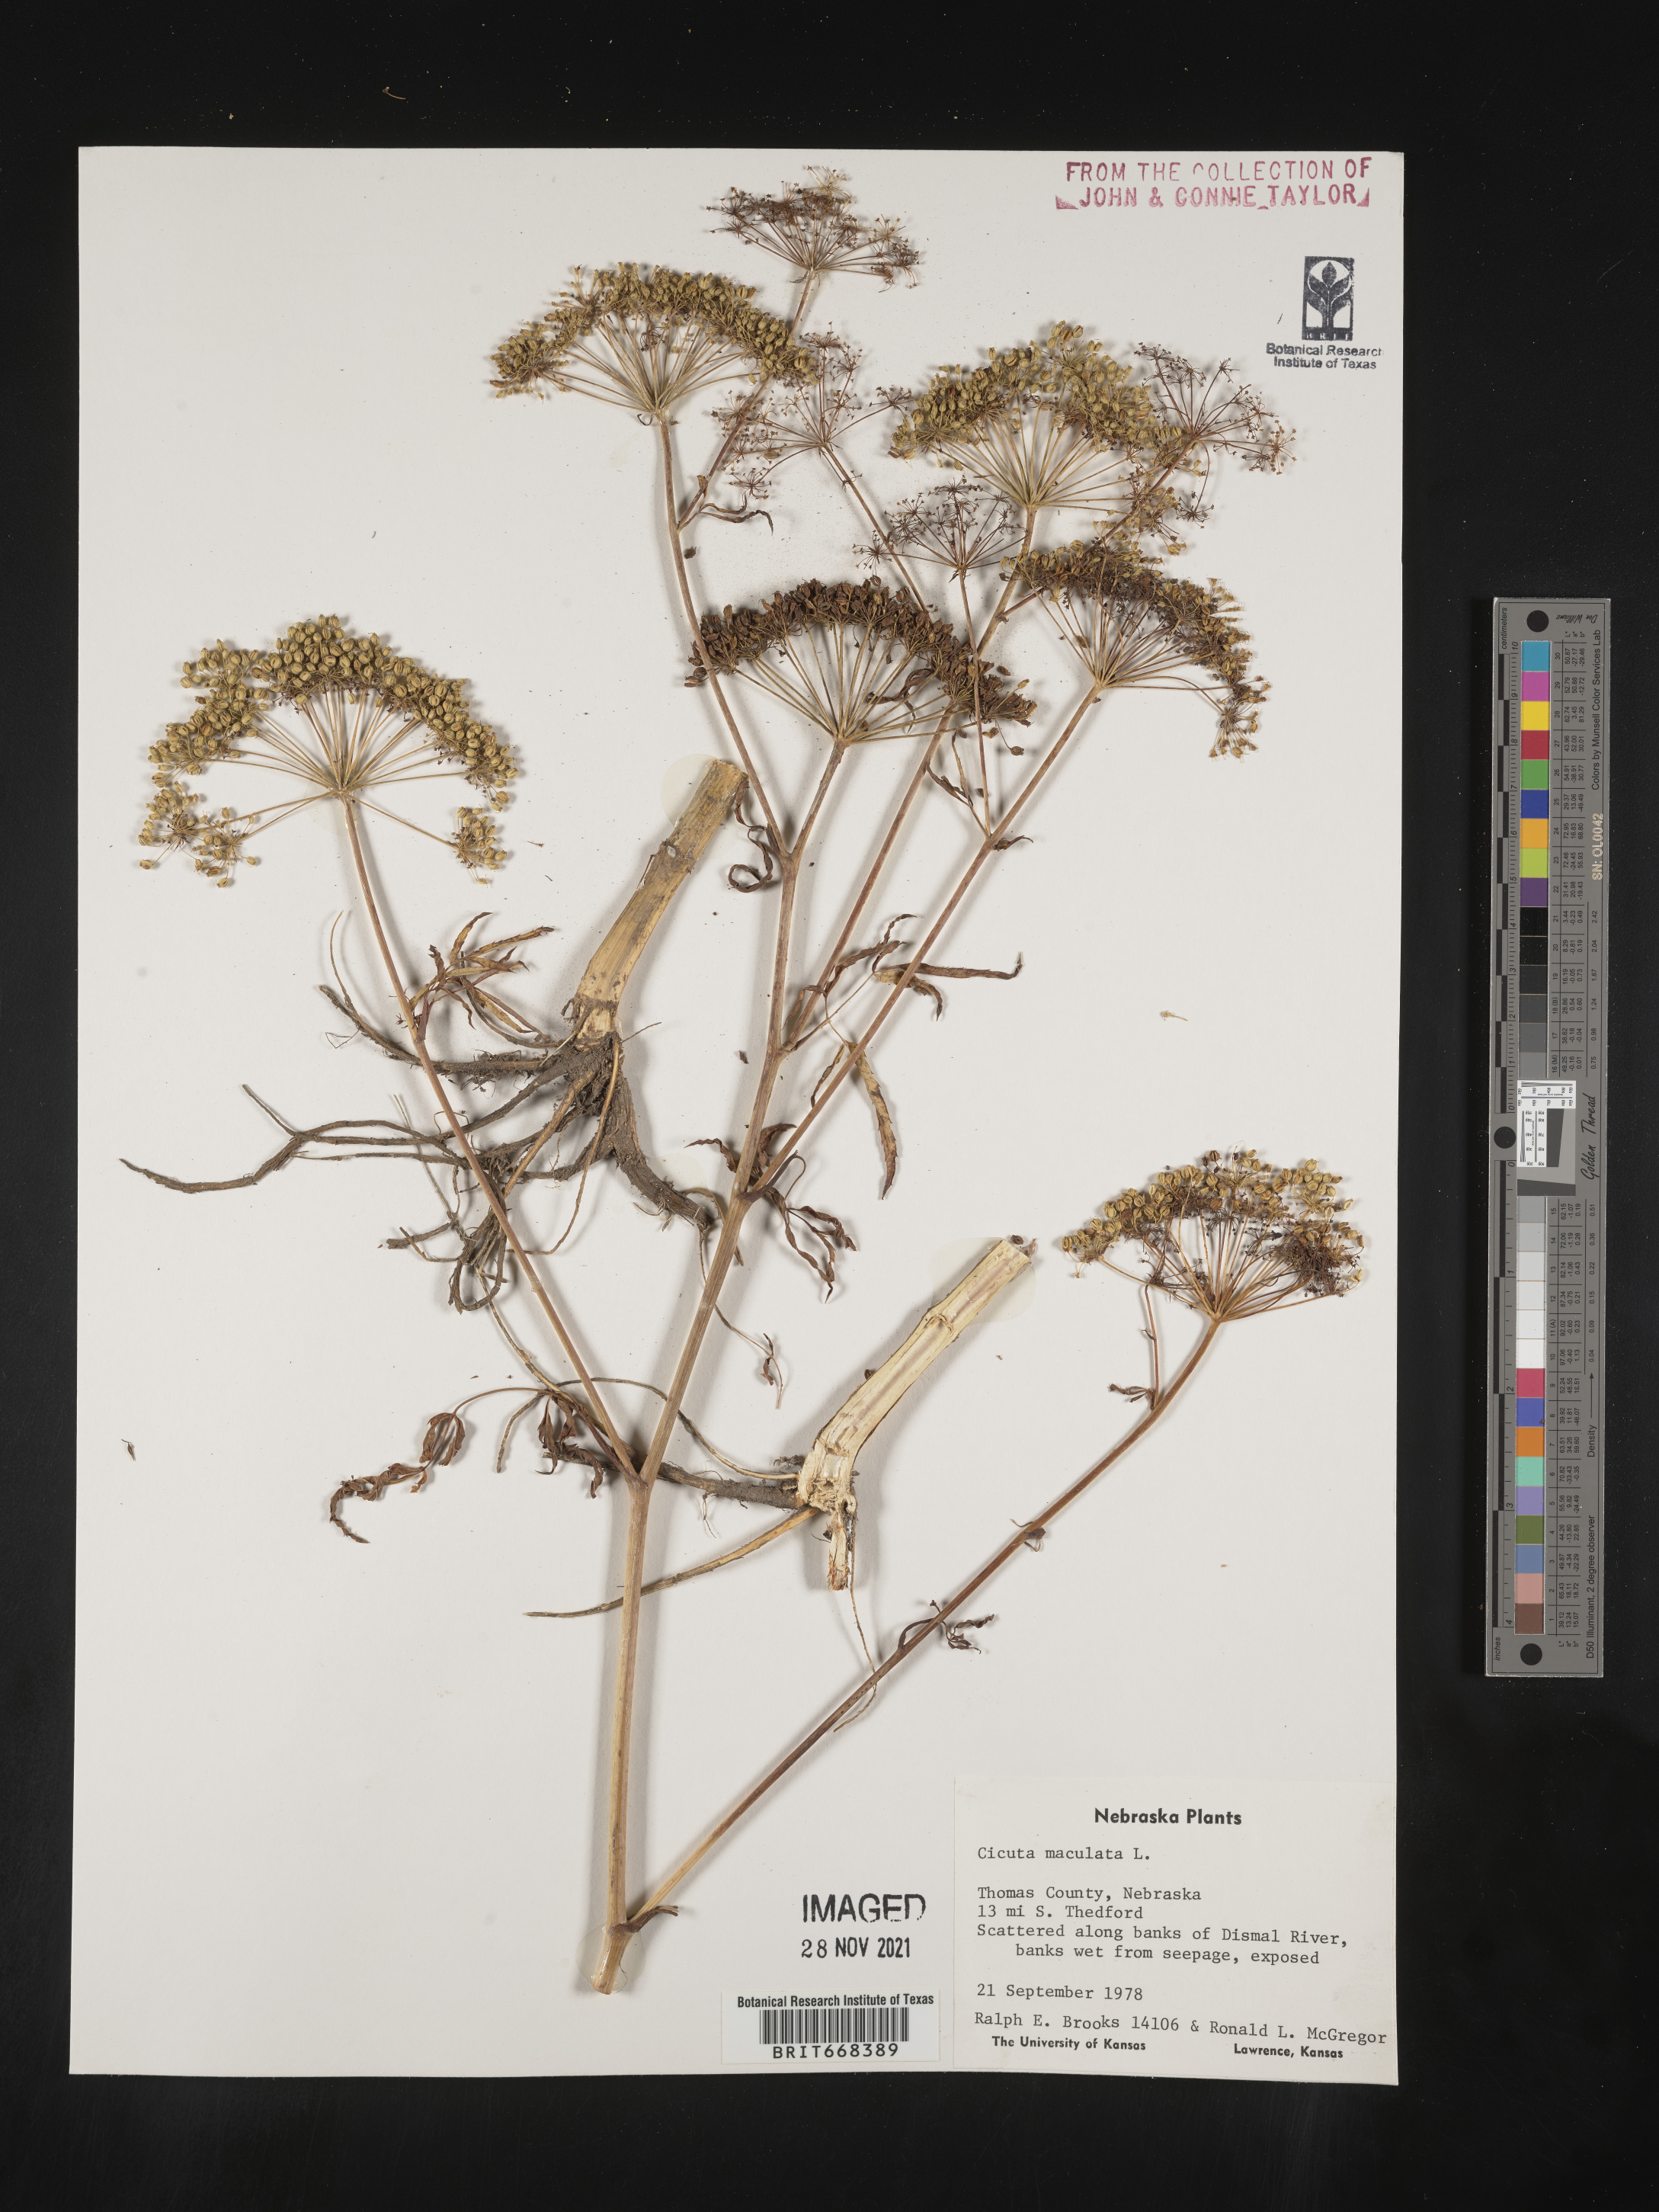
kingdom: Plantae
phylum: Tracheophyta
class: Magnoliopsida
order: Apiales
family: Apiaceae
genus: Cicuta
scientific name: Cicuta maculata
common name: Spotted cowbane
